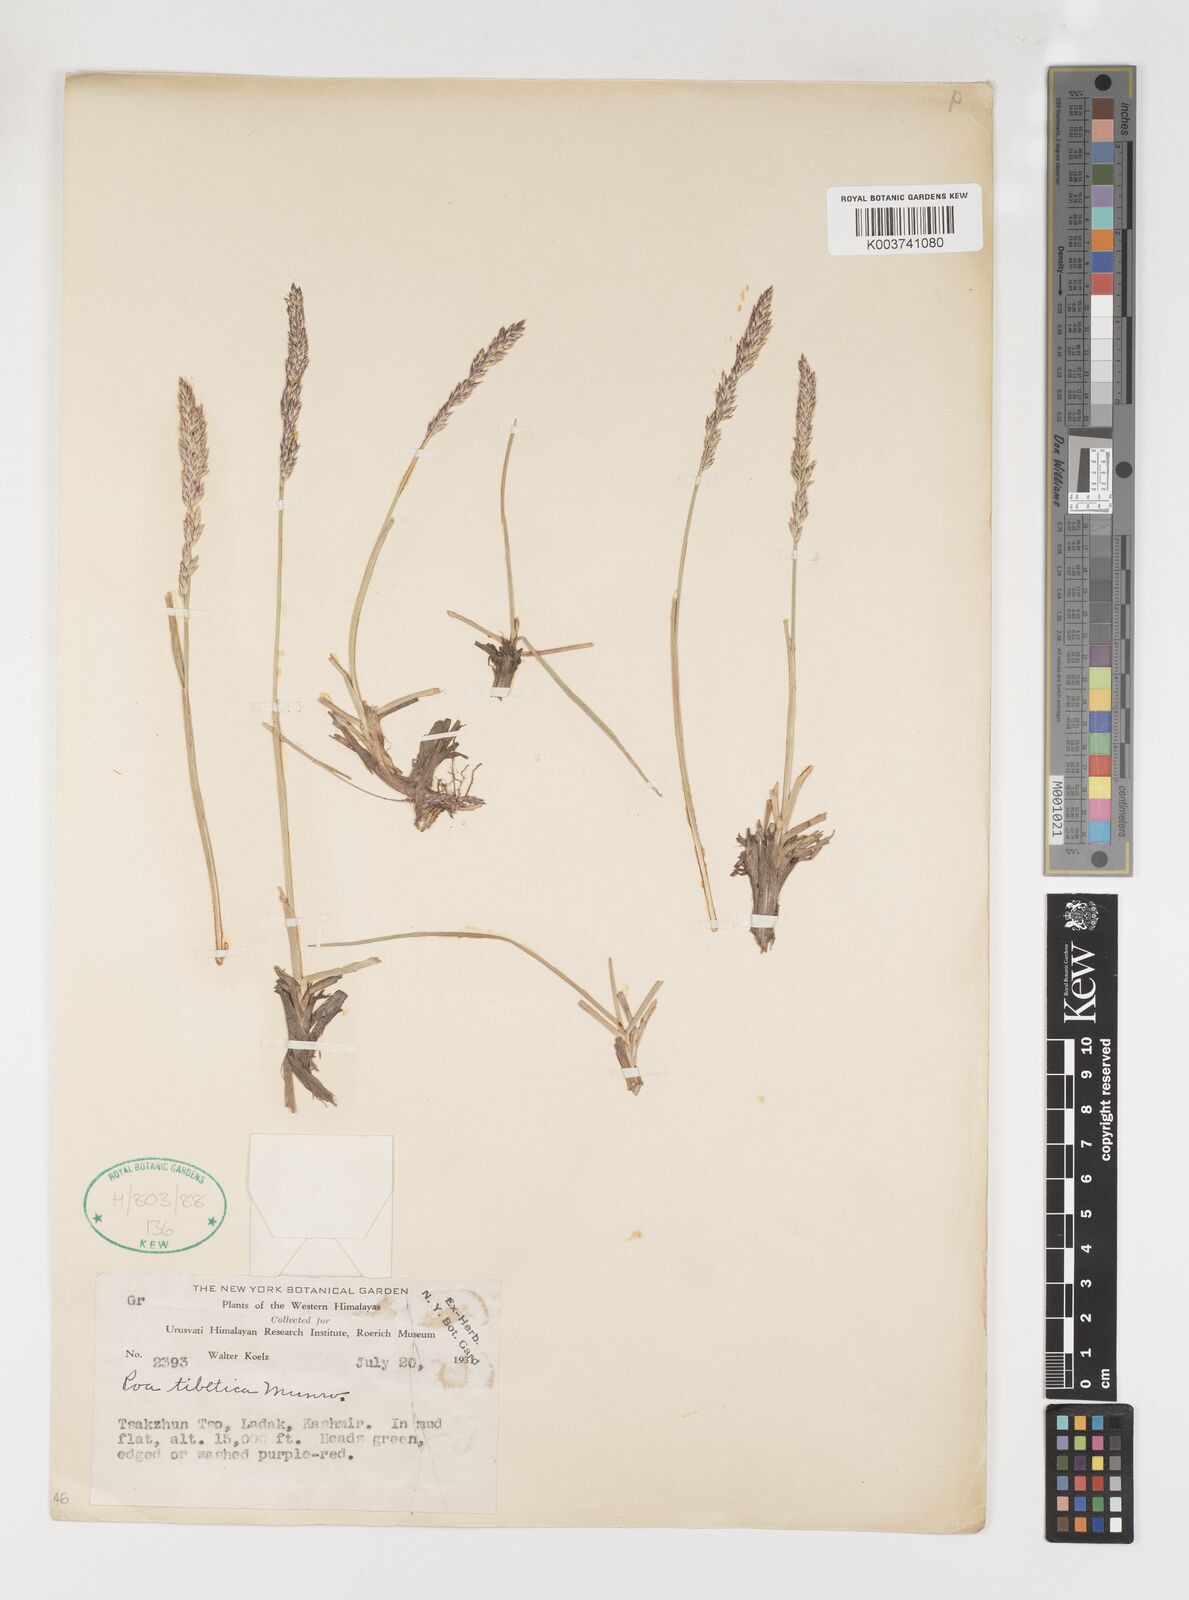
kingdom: Plantae
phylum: Tracheophyta
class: Liliopsida
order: Poales
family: Poaceae
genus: Arctopoa
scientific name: Arctopoa tibetica
